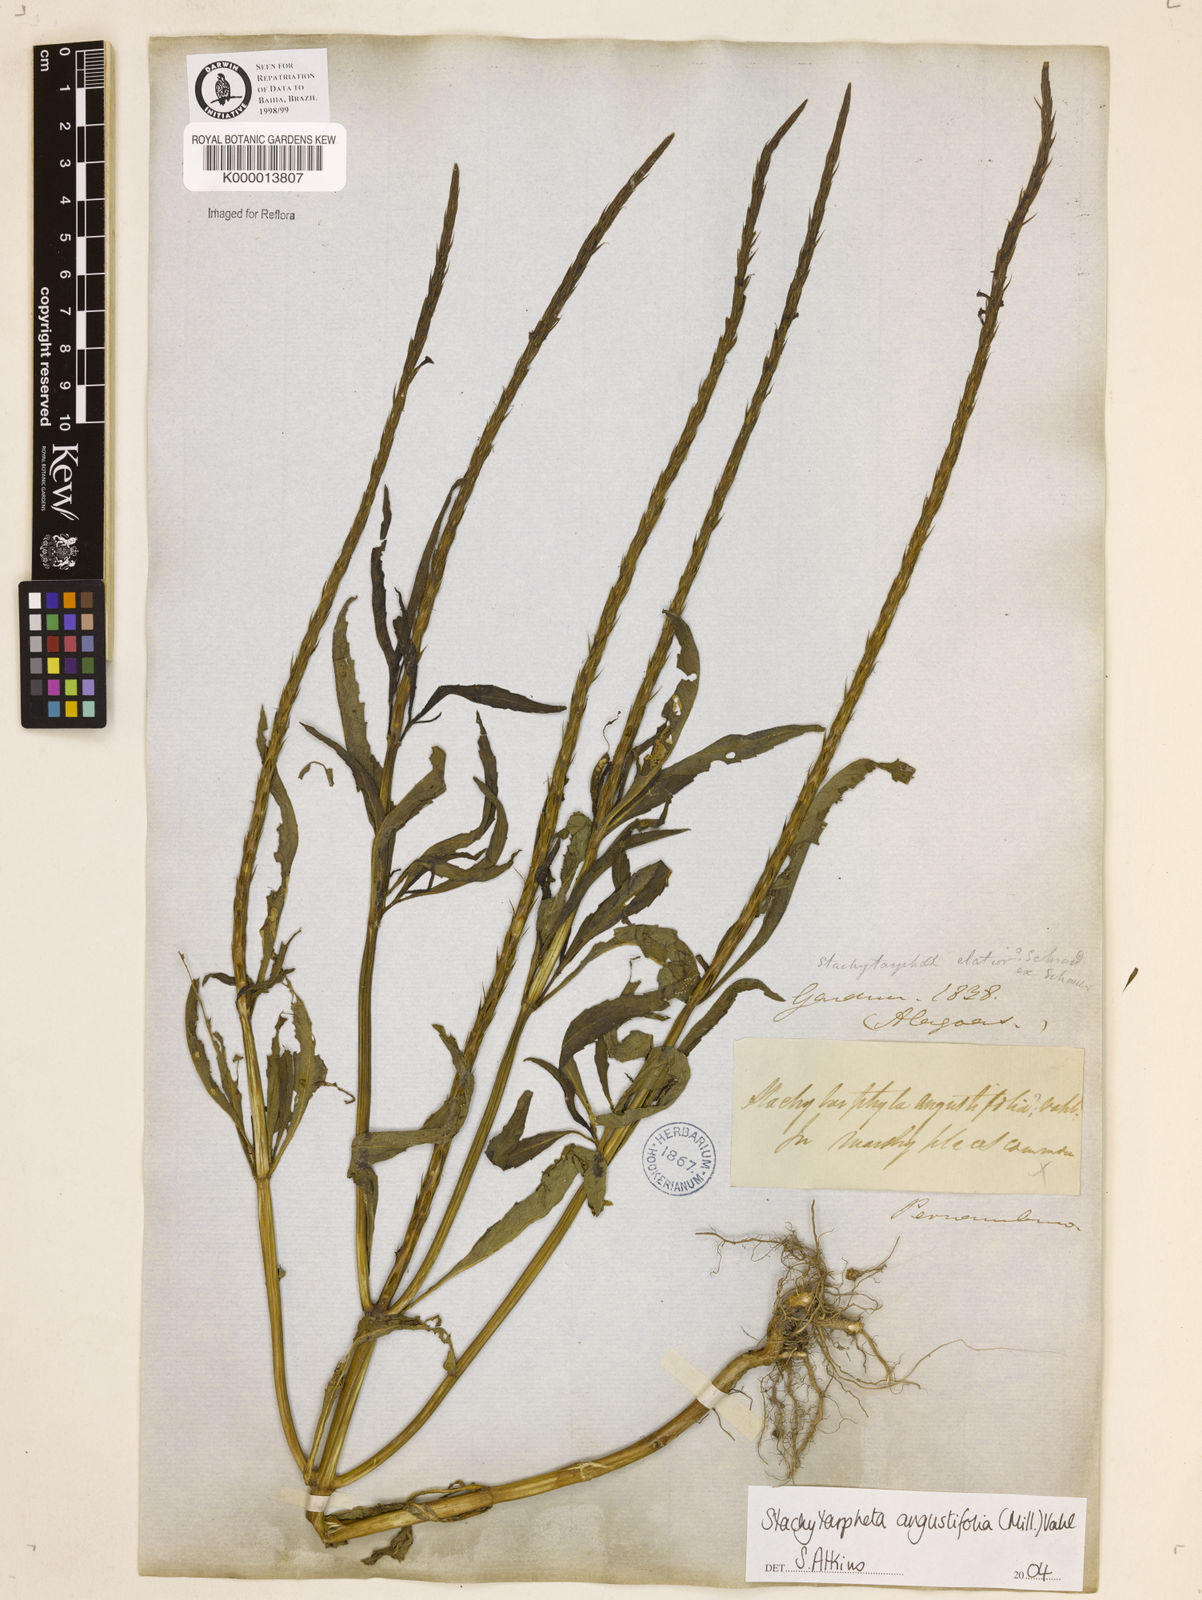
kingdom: Plantae
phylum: Tracheophyta
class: Magnoliopsida
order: Lamiales
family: Verbenaceae
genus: Stachytarpheta
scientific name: Stachytarpheta indica
